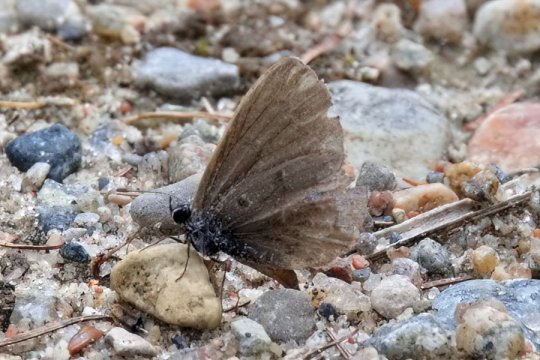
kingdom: Animalia
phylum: Arthropoda
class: Insecta
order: Lepidoptera
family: Lycaenidae
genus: Celastrina
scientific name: Celastrina lucia
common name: Northern Spring Azure
